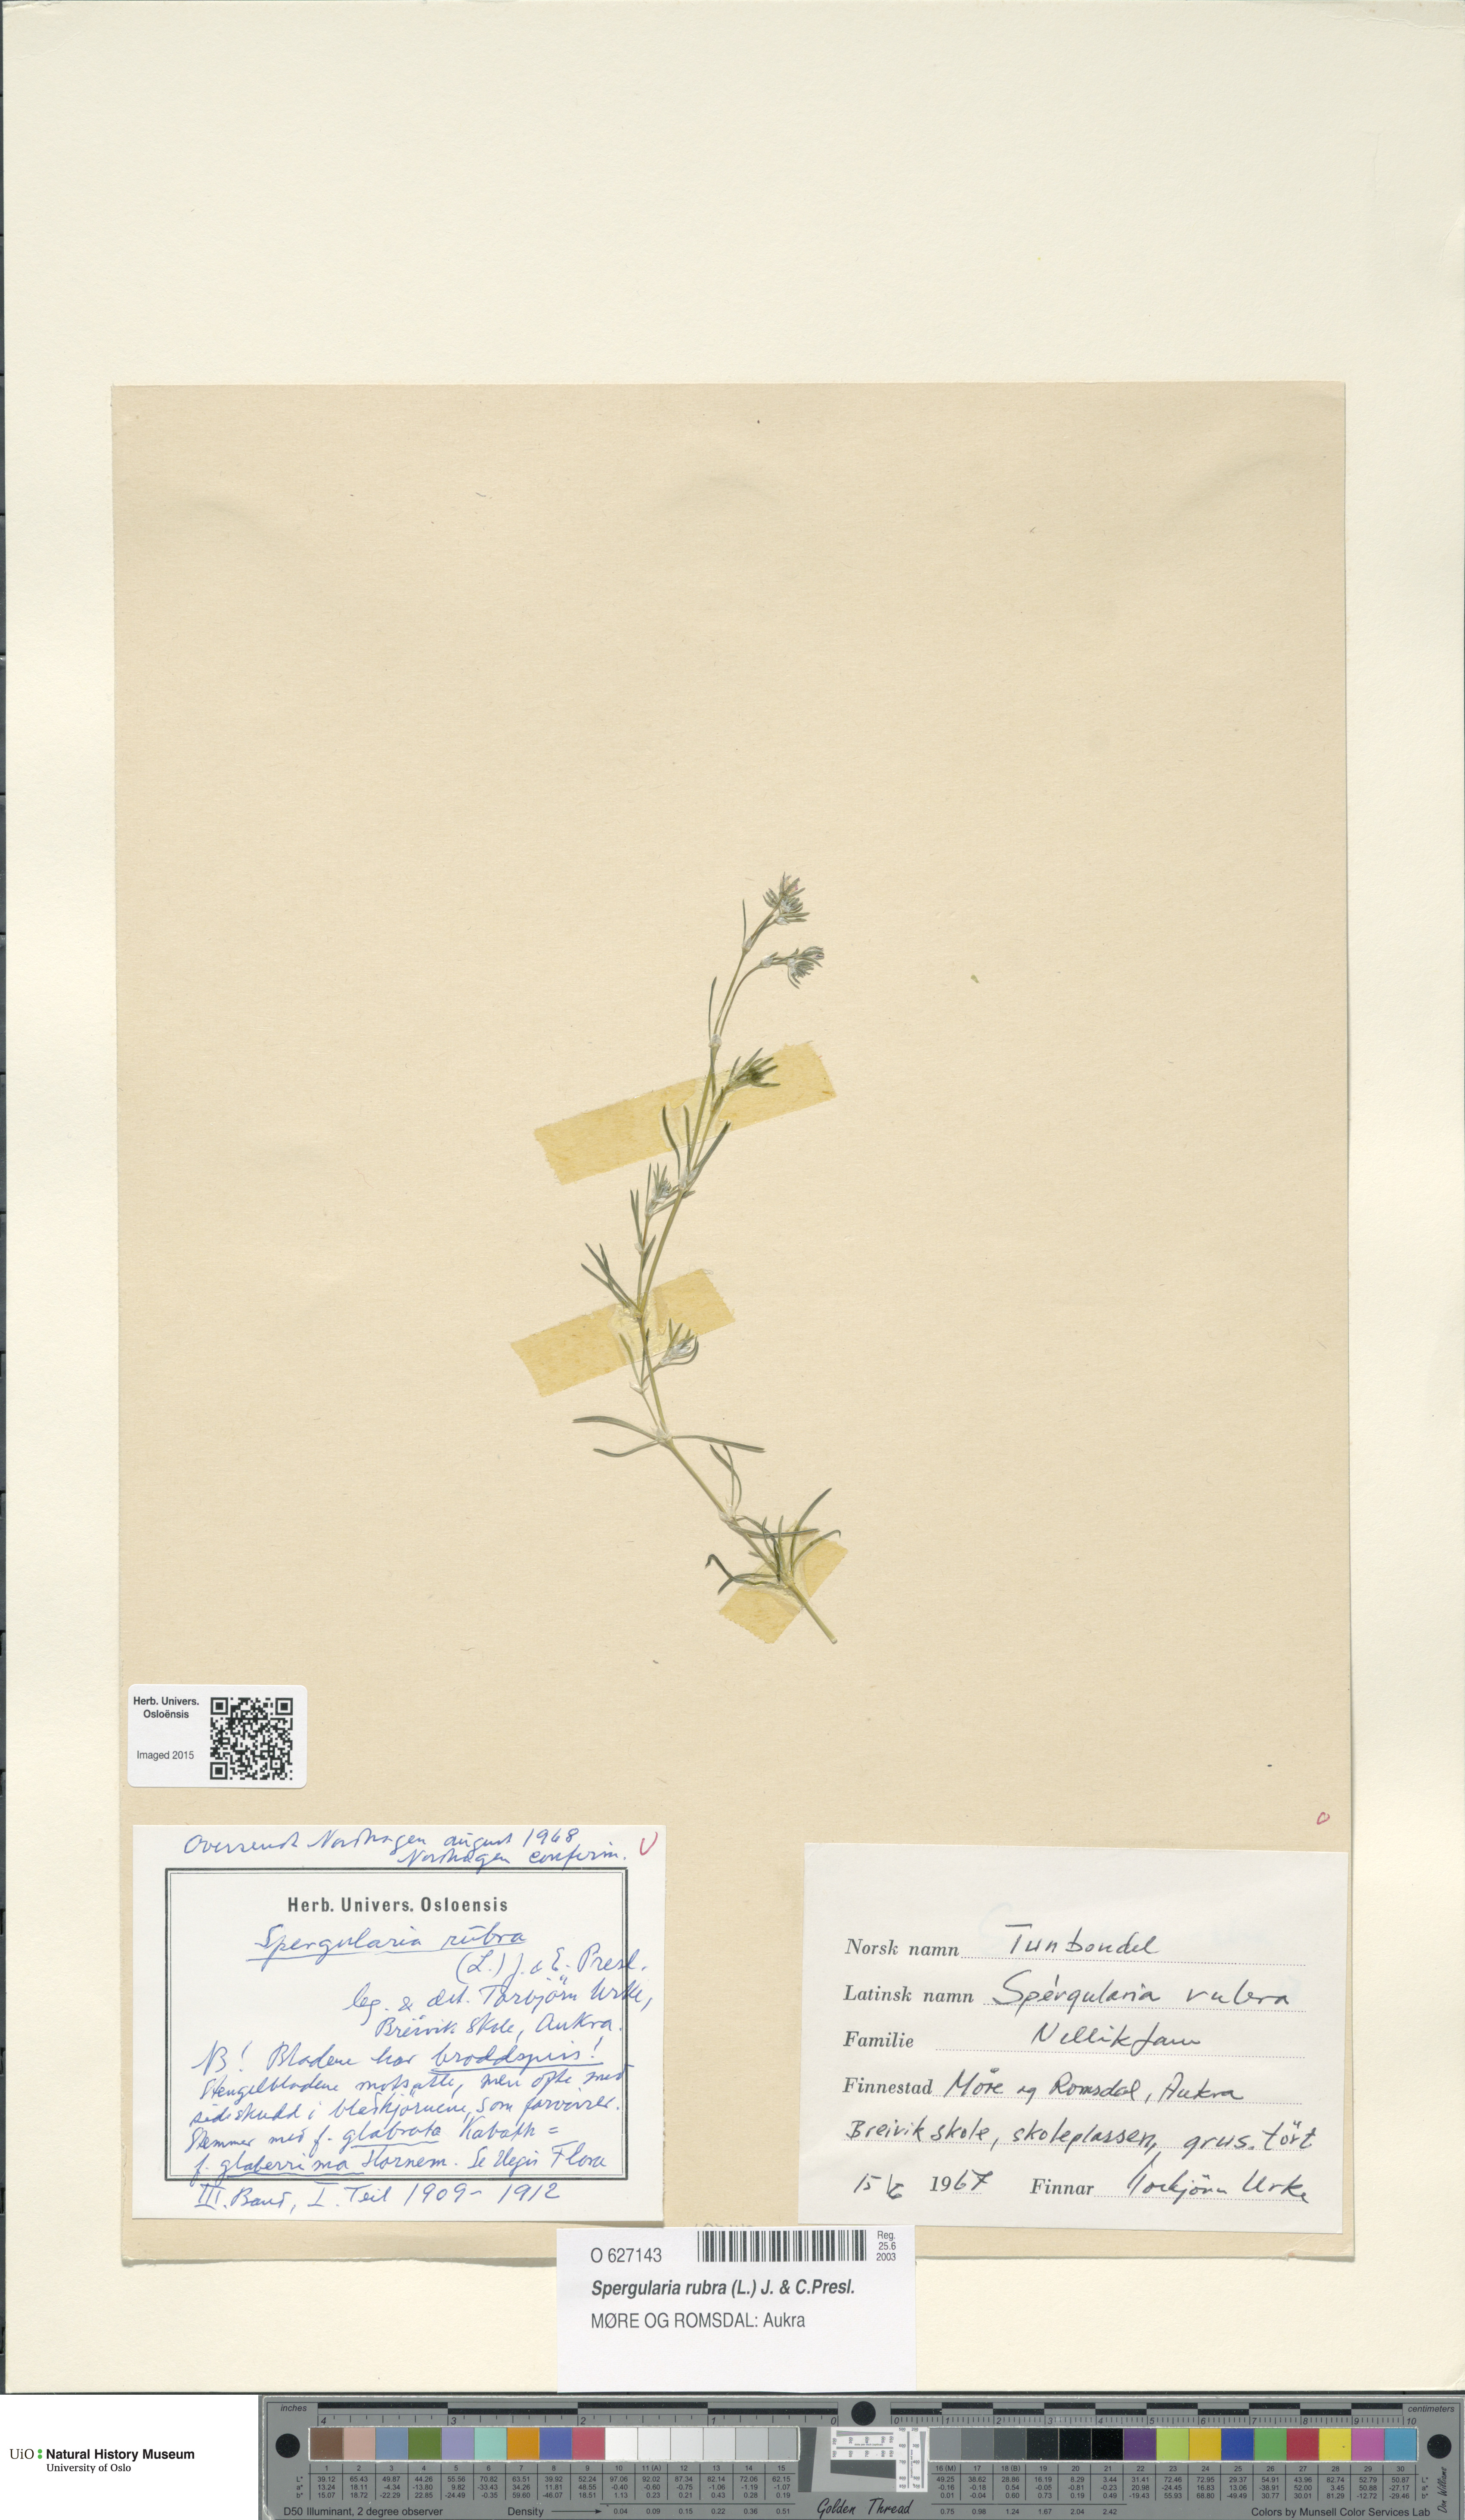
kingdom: Plantae
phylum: Tracheophyta
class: Magnoliopsida
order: Caryophyllales
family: Caryophyllaceae
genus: Spergularia
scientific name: Spergularia rubra
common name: Red sand-spurrey
